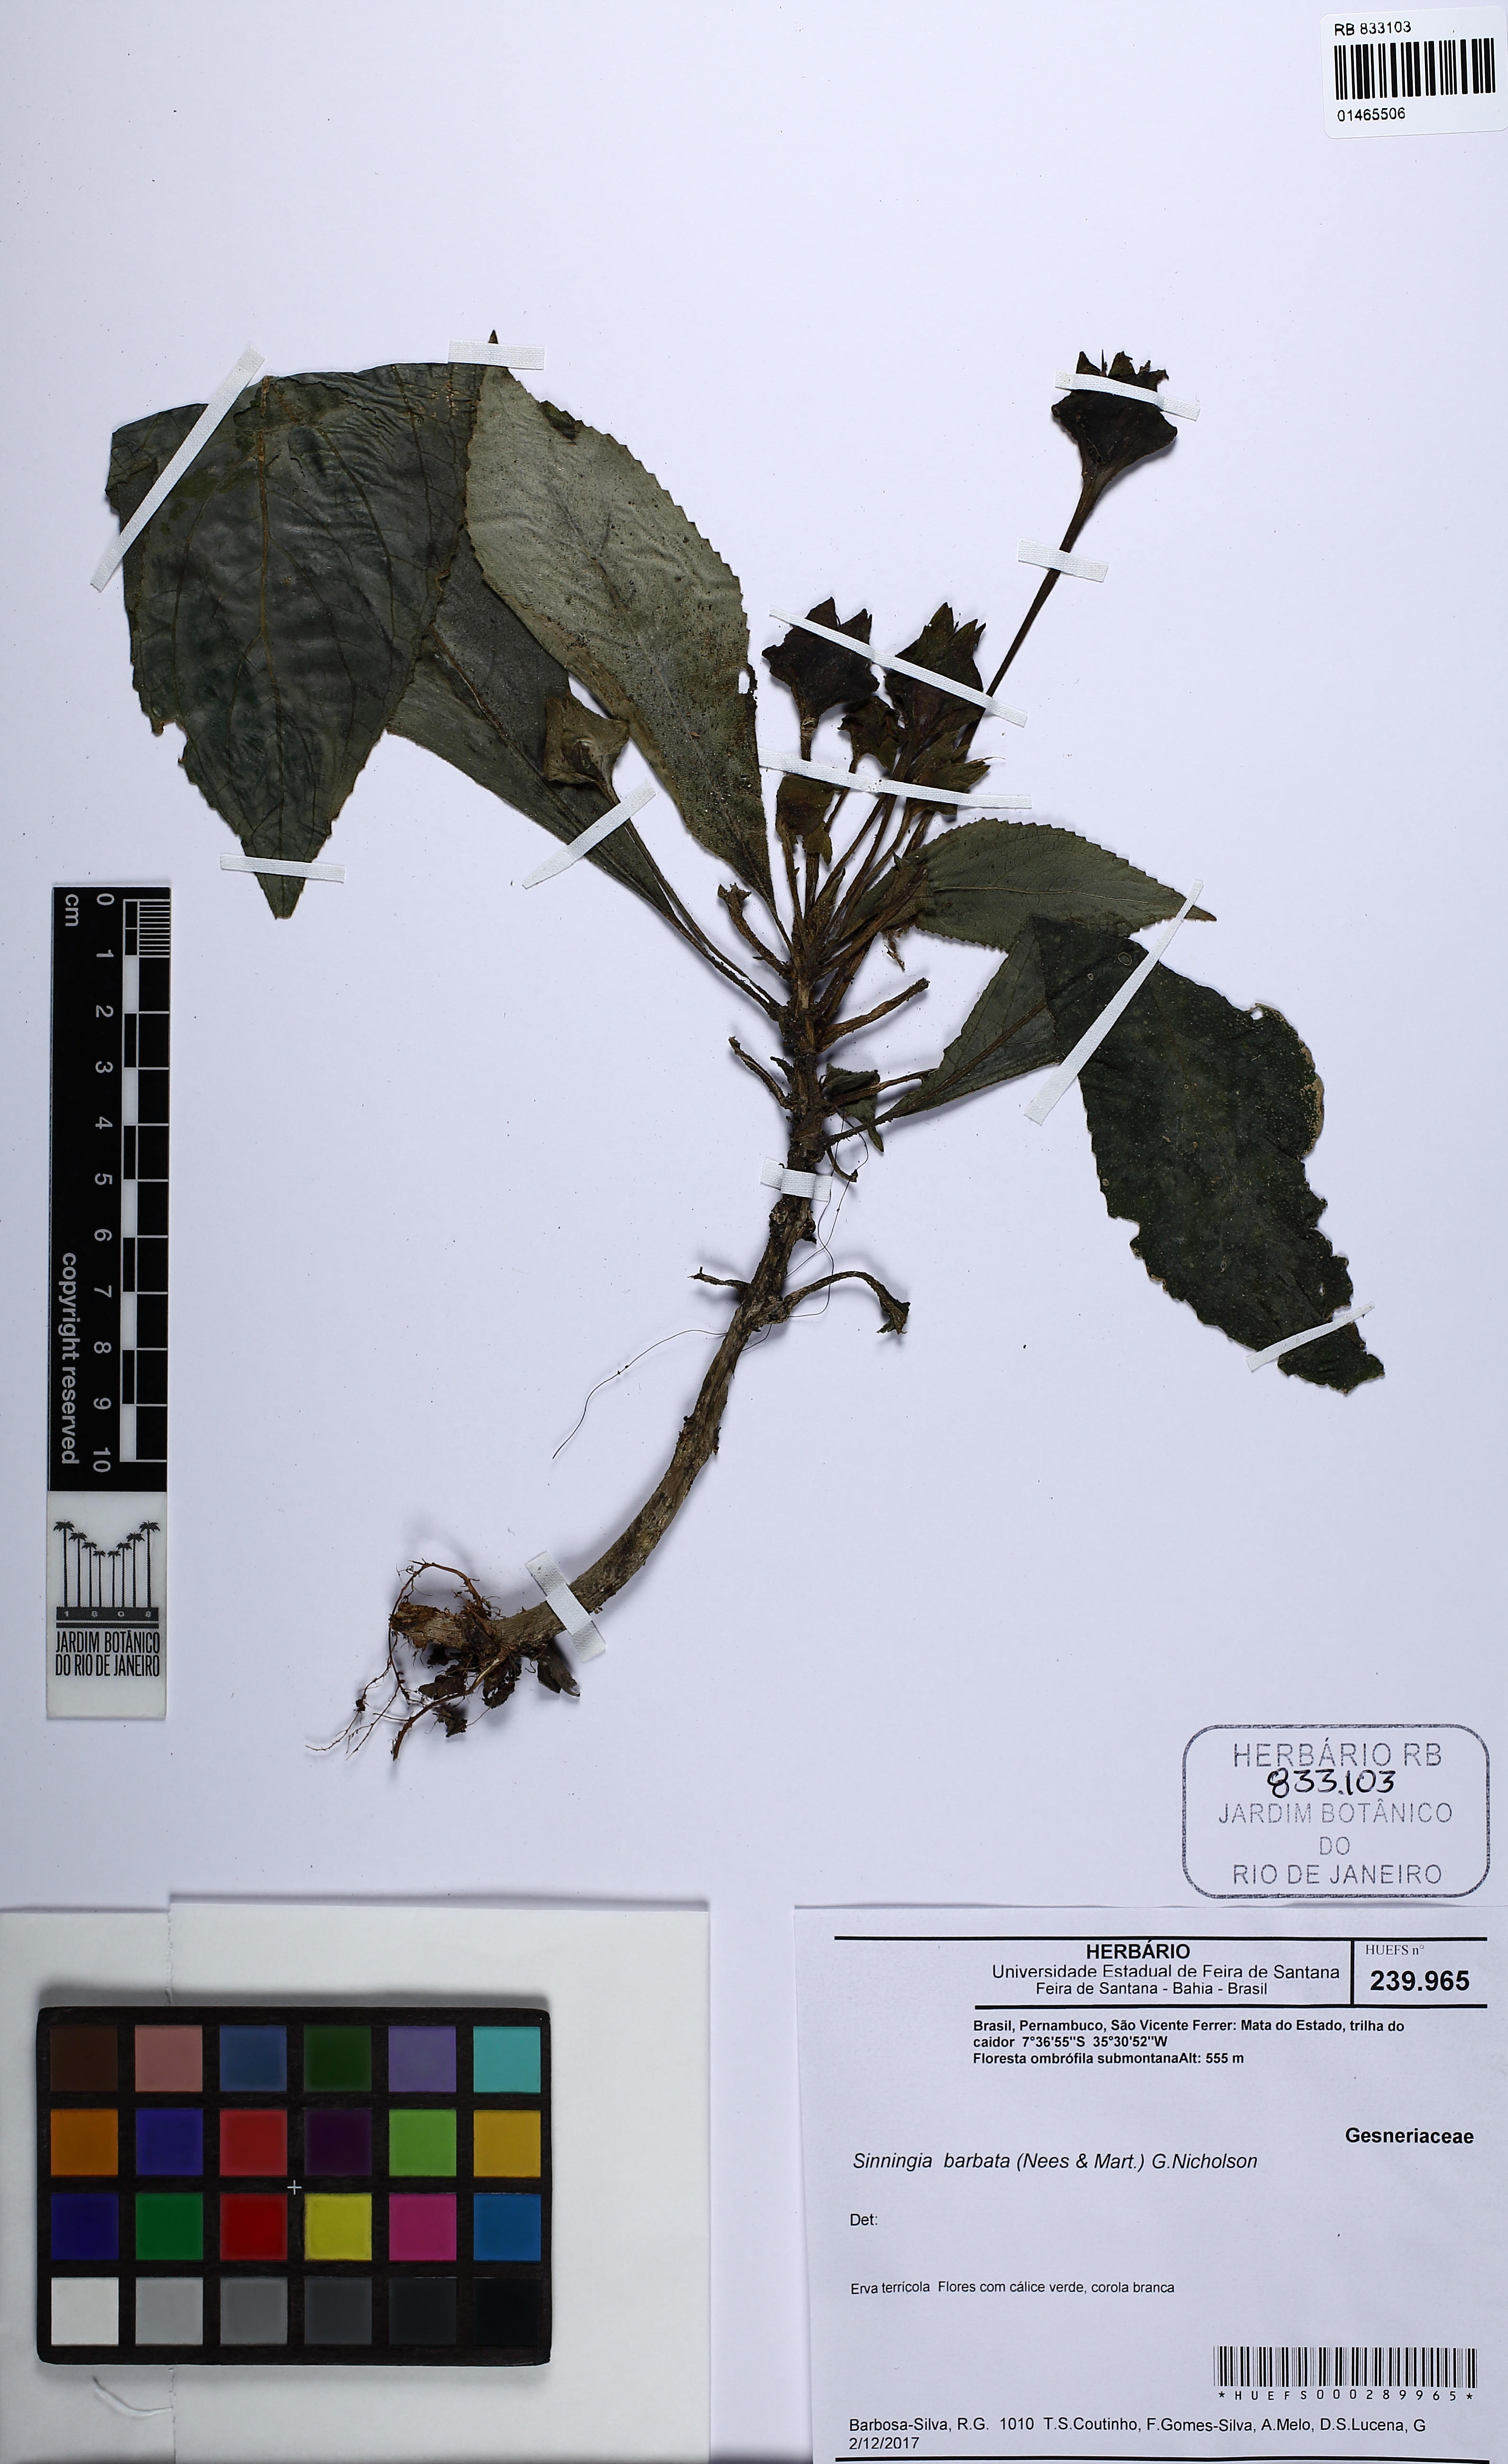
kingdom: Plantae
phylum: Tracheophyta
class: Magnoliopsida
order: Lamiales
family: Gesneriaceae
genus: Sinningia
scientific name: Sinningia barbata
